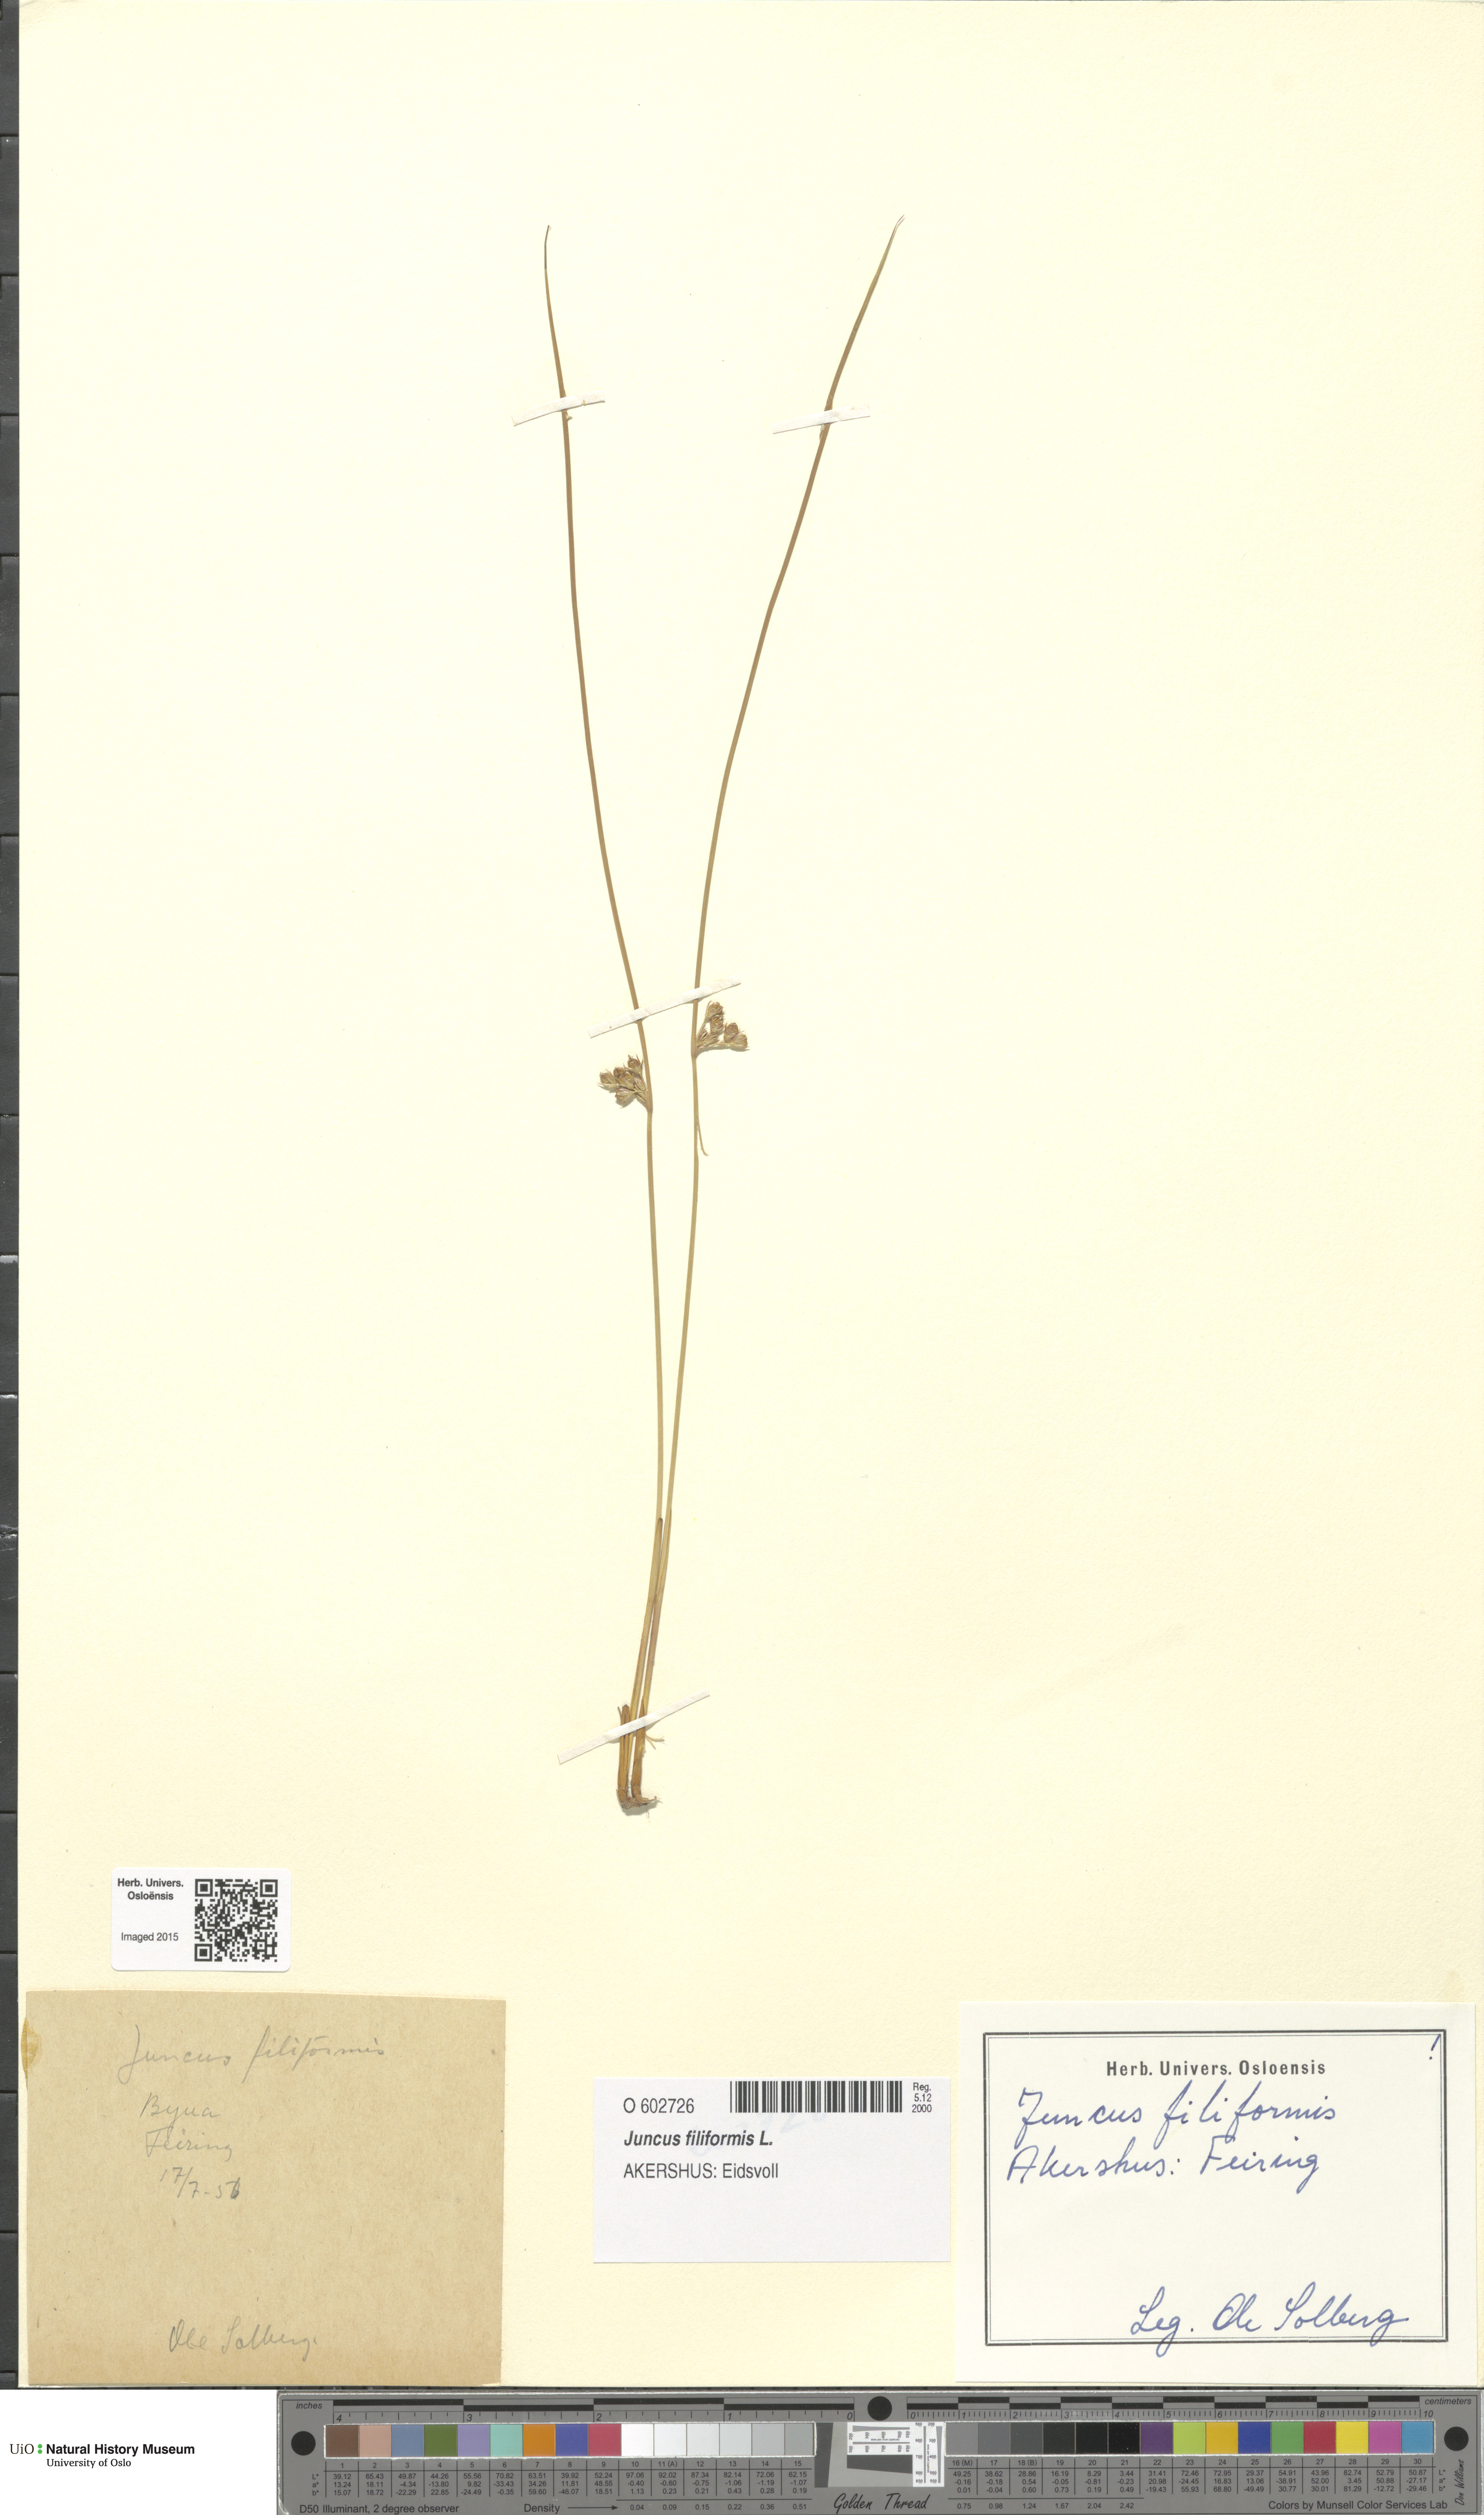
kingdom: Plantae
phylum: Tracheophyta
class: Liliopsida
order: Poales
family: Juncaceae
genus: Juncus
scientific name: Juncus filiformis
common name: Thread rush
